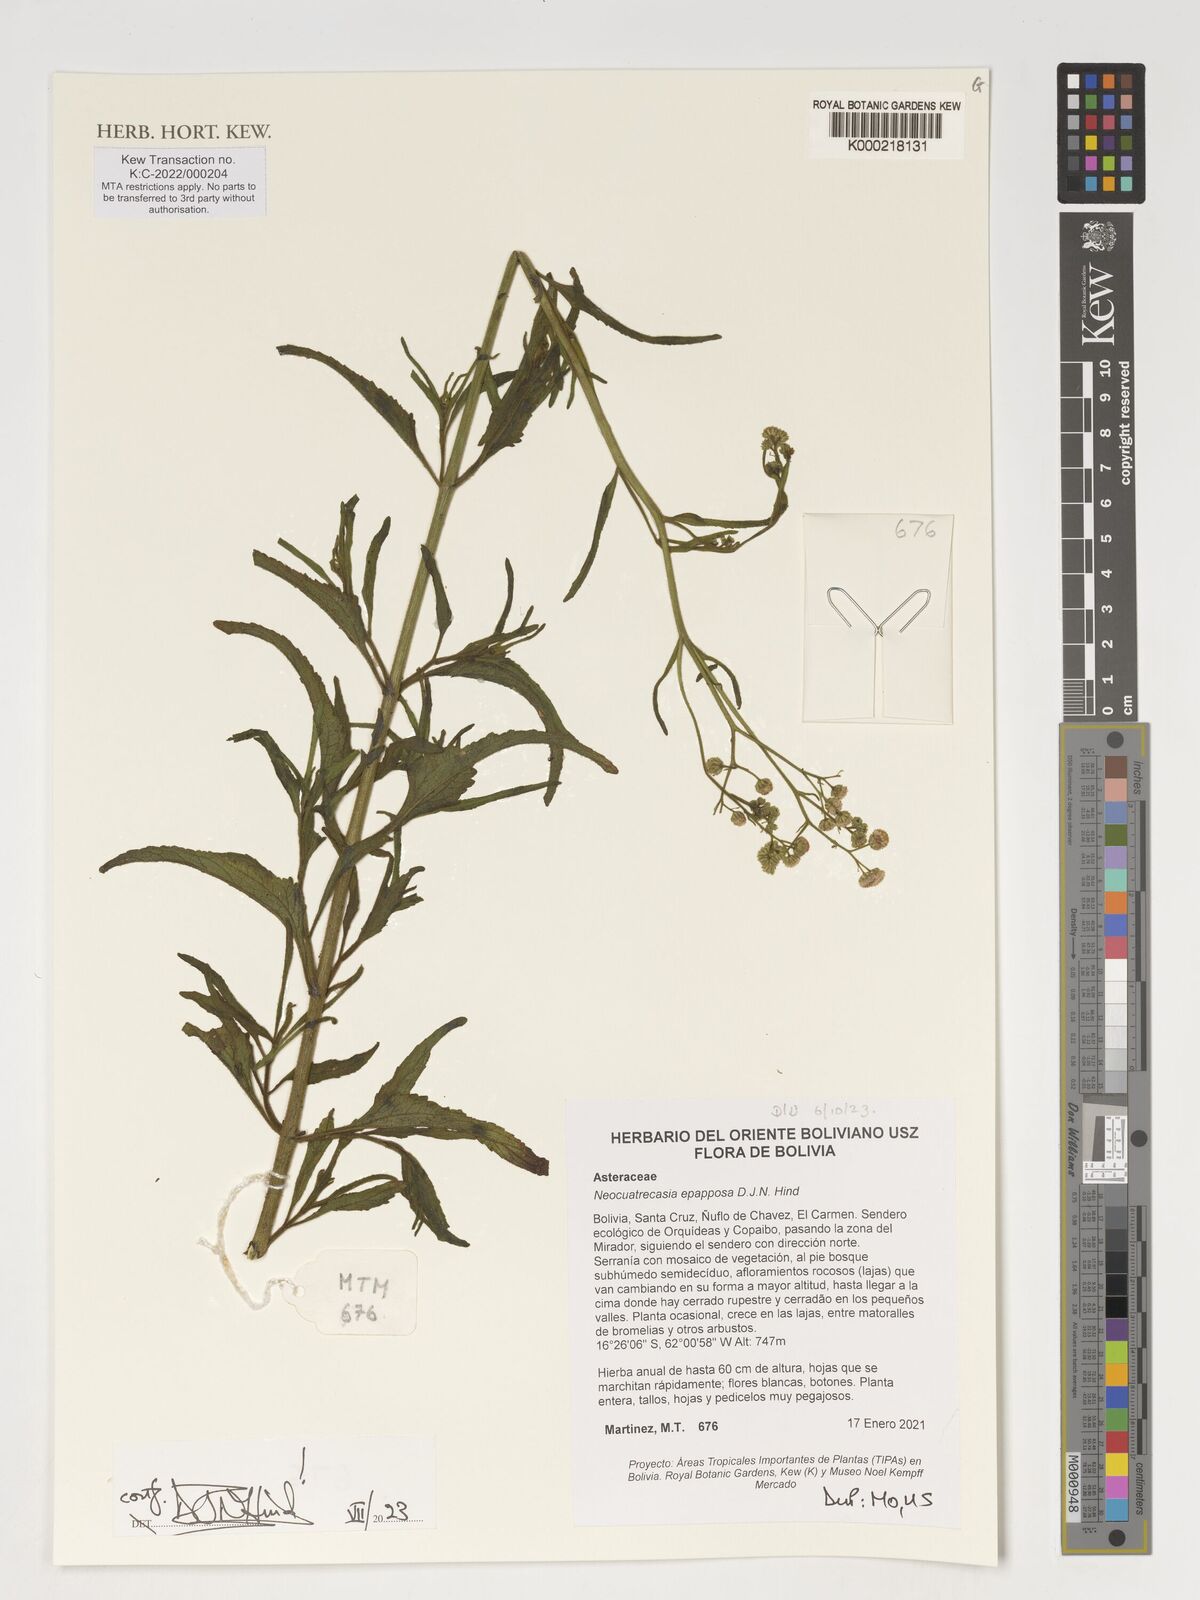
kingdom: Plantae
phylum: Tracheophyta
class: Magnoliopsida
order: Asterales
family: Asteraceae
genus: Neocuatrecasia
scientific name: Neocuatrecasia epapposa
